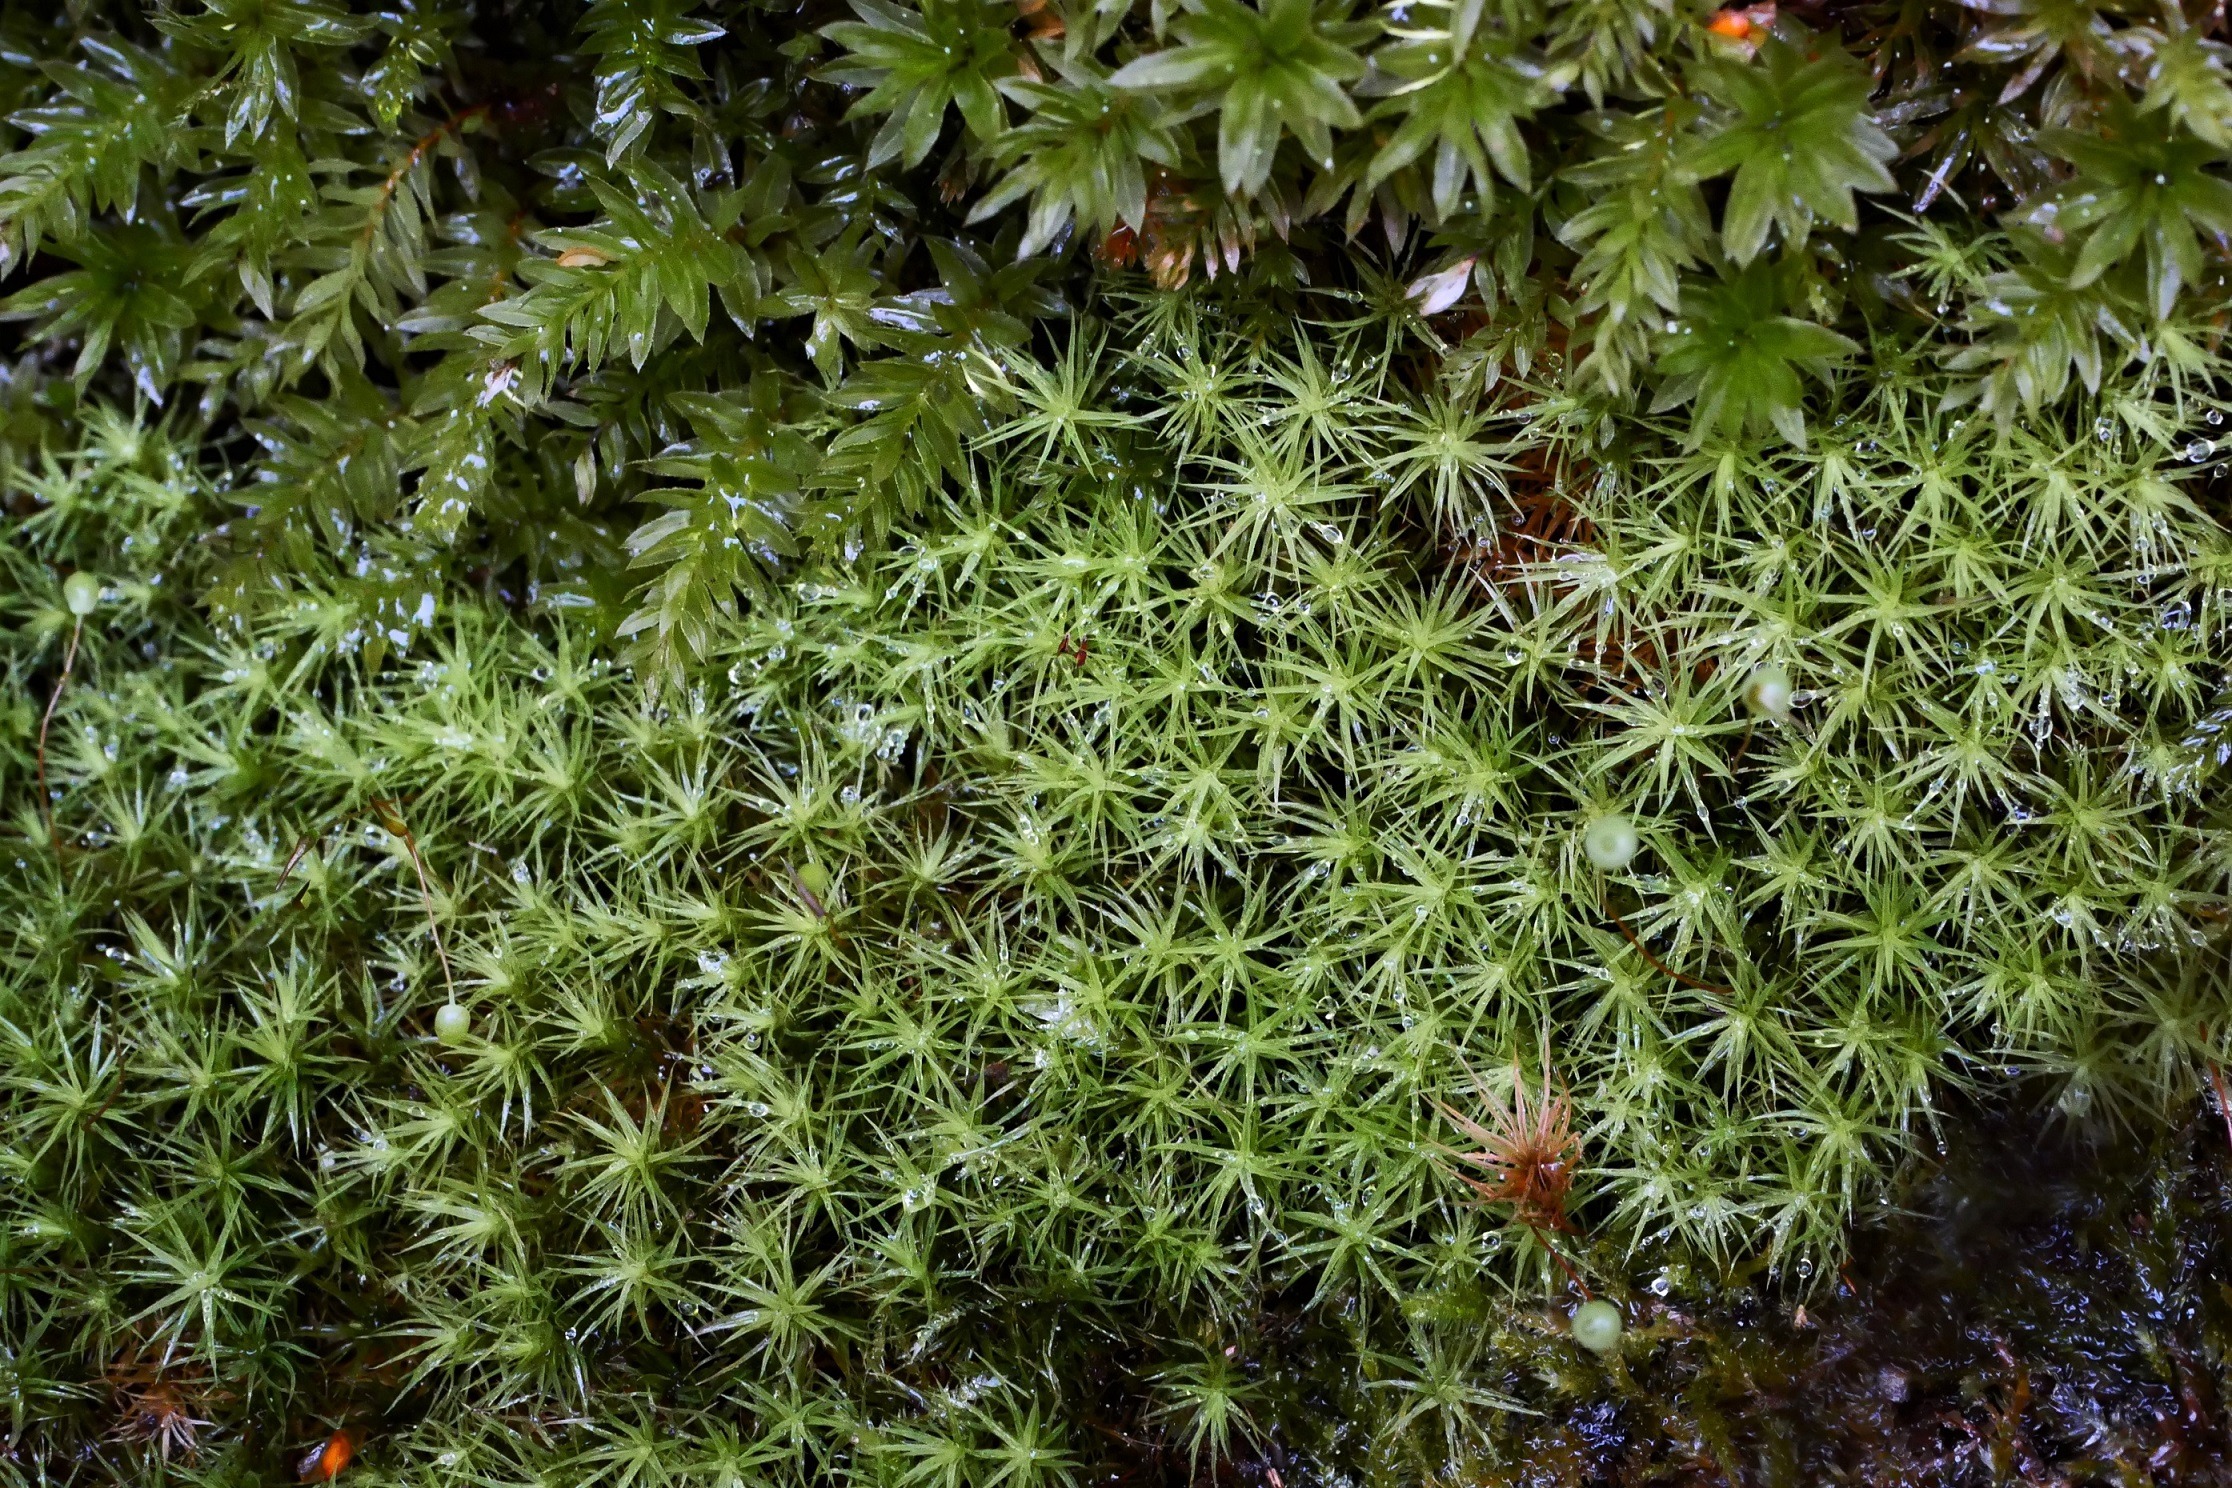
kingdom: Plantae
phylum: Bryophyta
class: Bryopsida
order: Bartramiales
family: Bartramiaceae
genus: Bartramia
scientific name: Bartramia pomiformis
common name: Gulgrøn kuglekapsel
